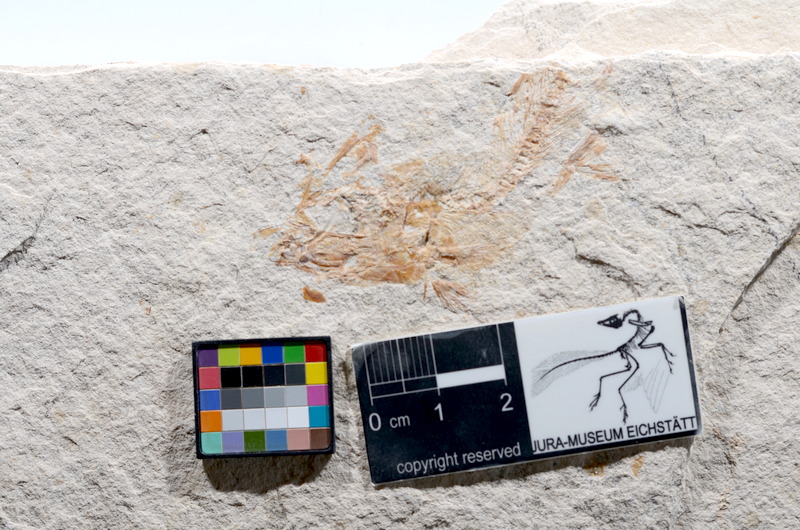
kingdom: Animalia
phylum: Chordata
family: Ascalaboidae
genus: Tharsis
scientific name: Tharsis dubius
